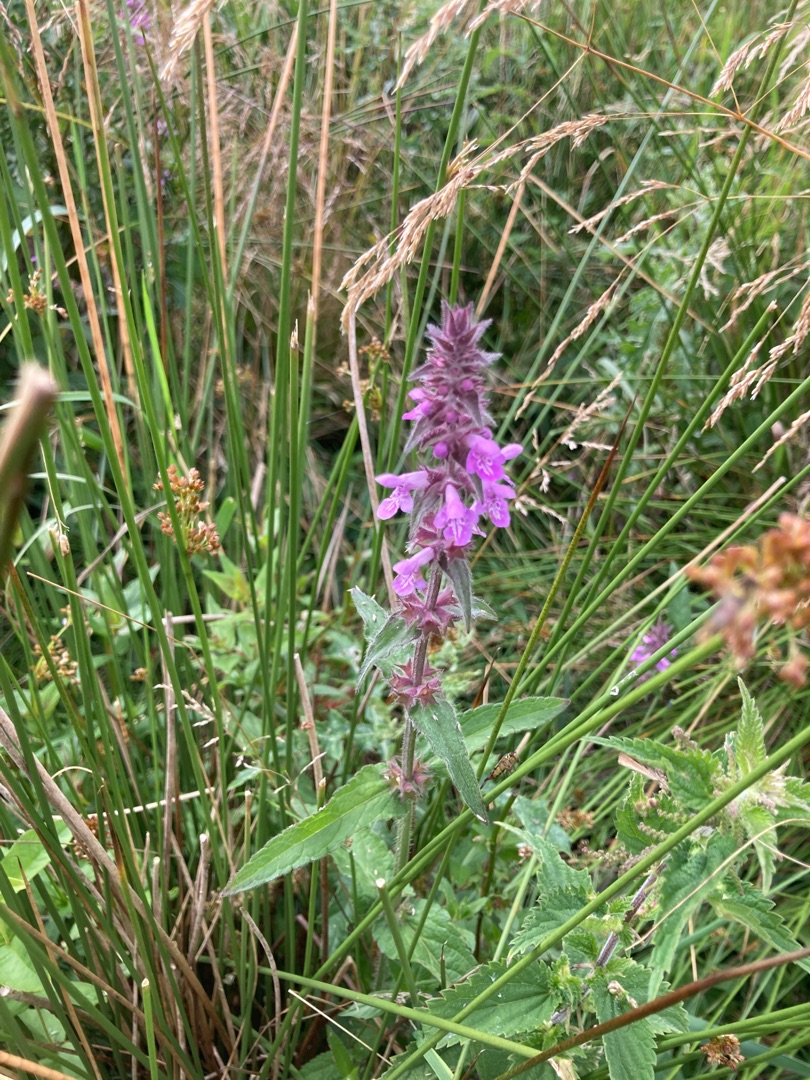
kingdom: Plantae
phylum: Tracheophyta
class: Magnoliopsida
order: Lamiales
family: Lamiaceae
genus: Stachys
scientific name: Stachys palustris
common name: Kær-galtetand
